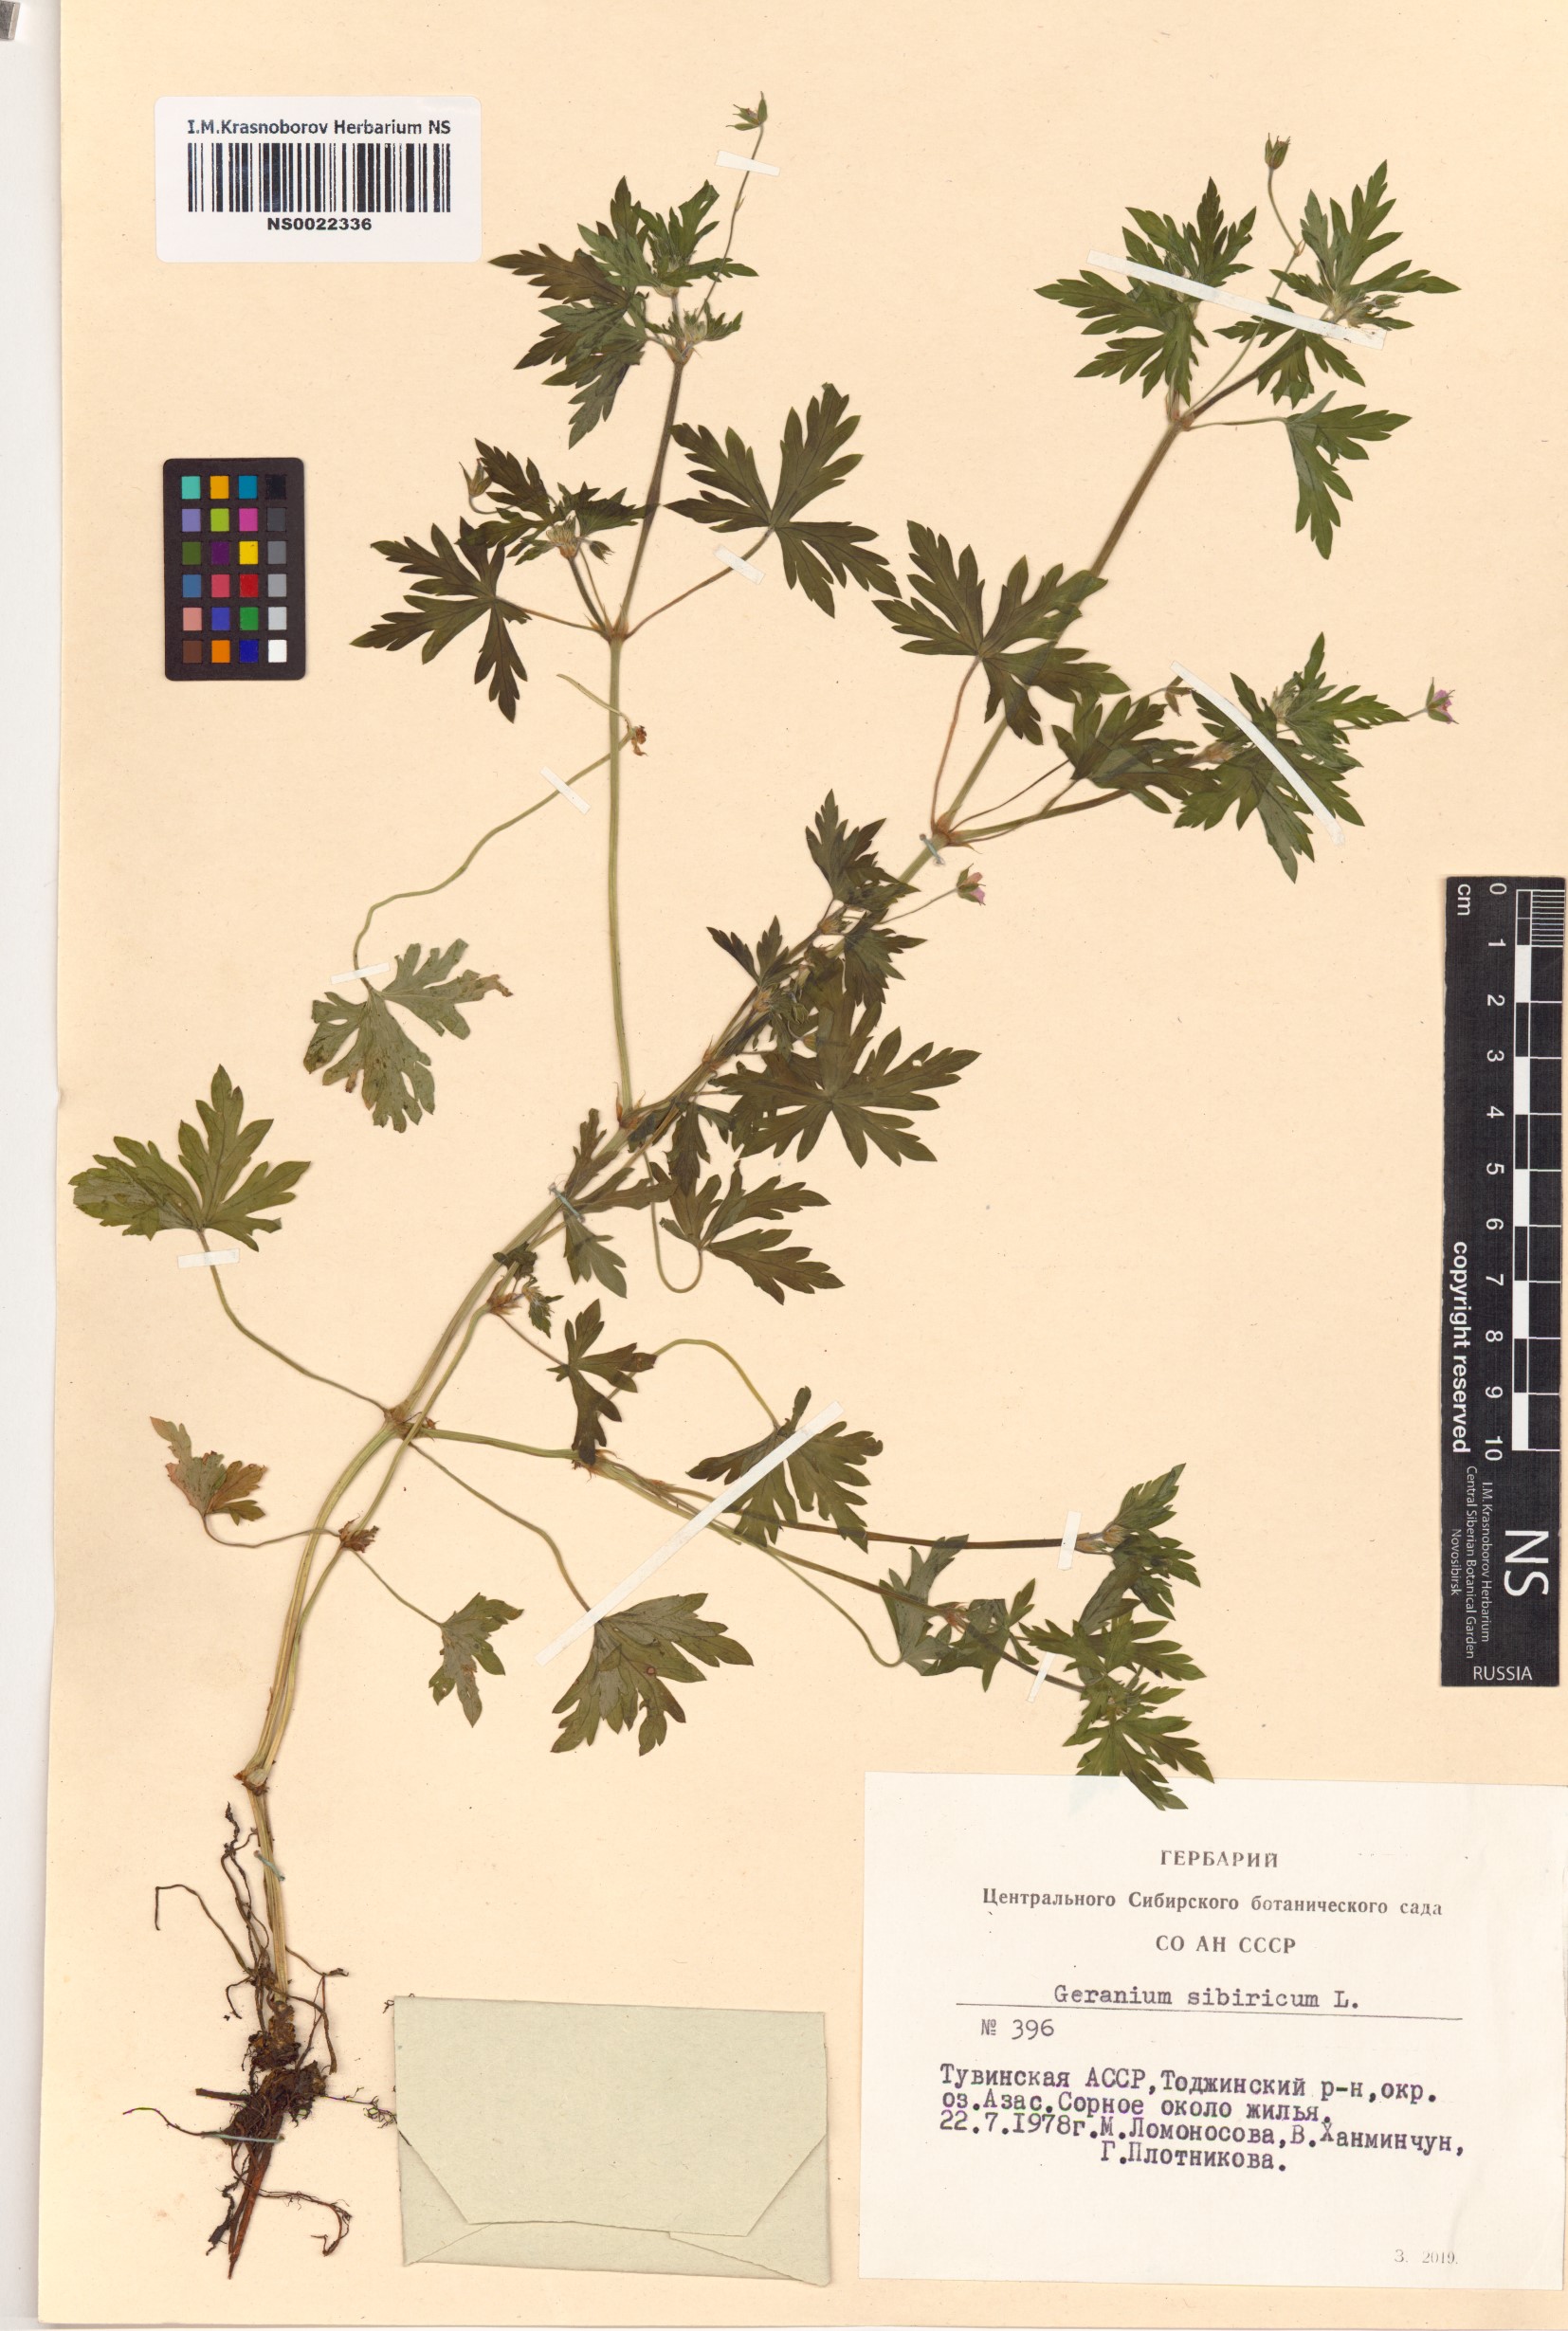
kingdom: Plantae
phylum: Tracheophyta
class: Magnoliopsida
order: Geraniales
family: Geraniaceae
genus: Geranium
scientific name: Geranium sibiricum
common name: Siberian crane's-bill
